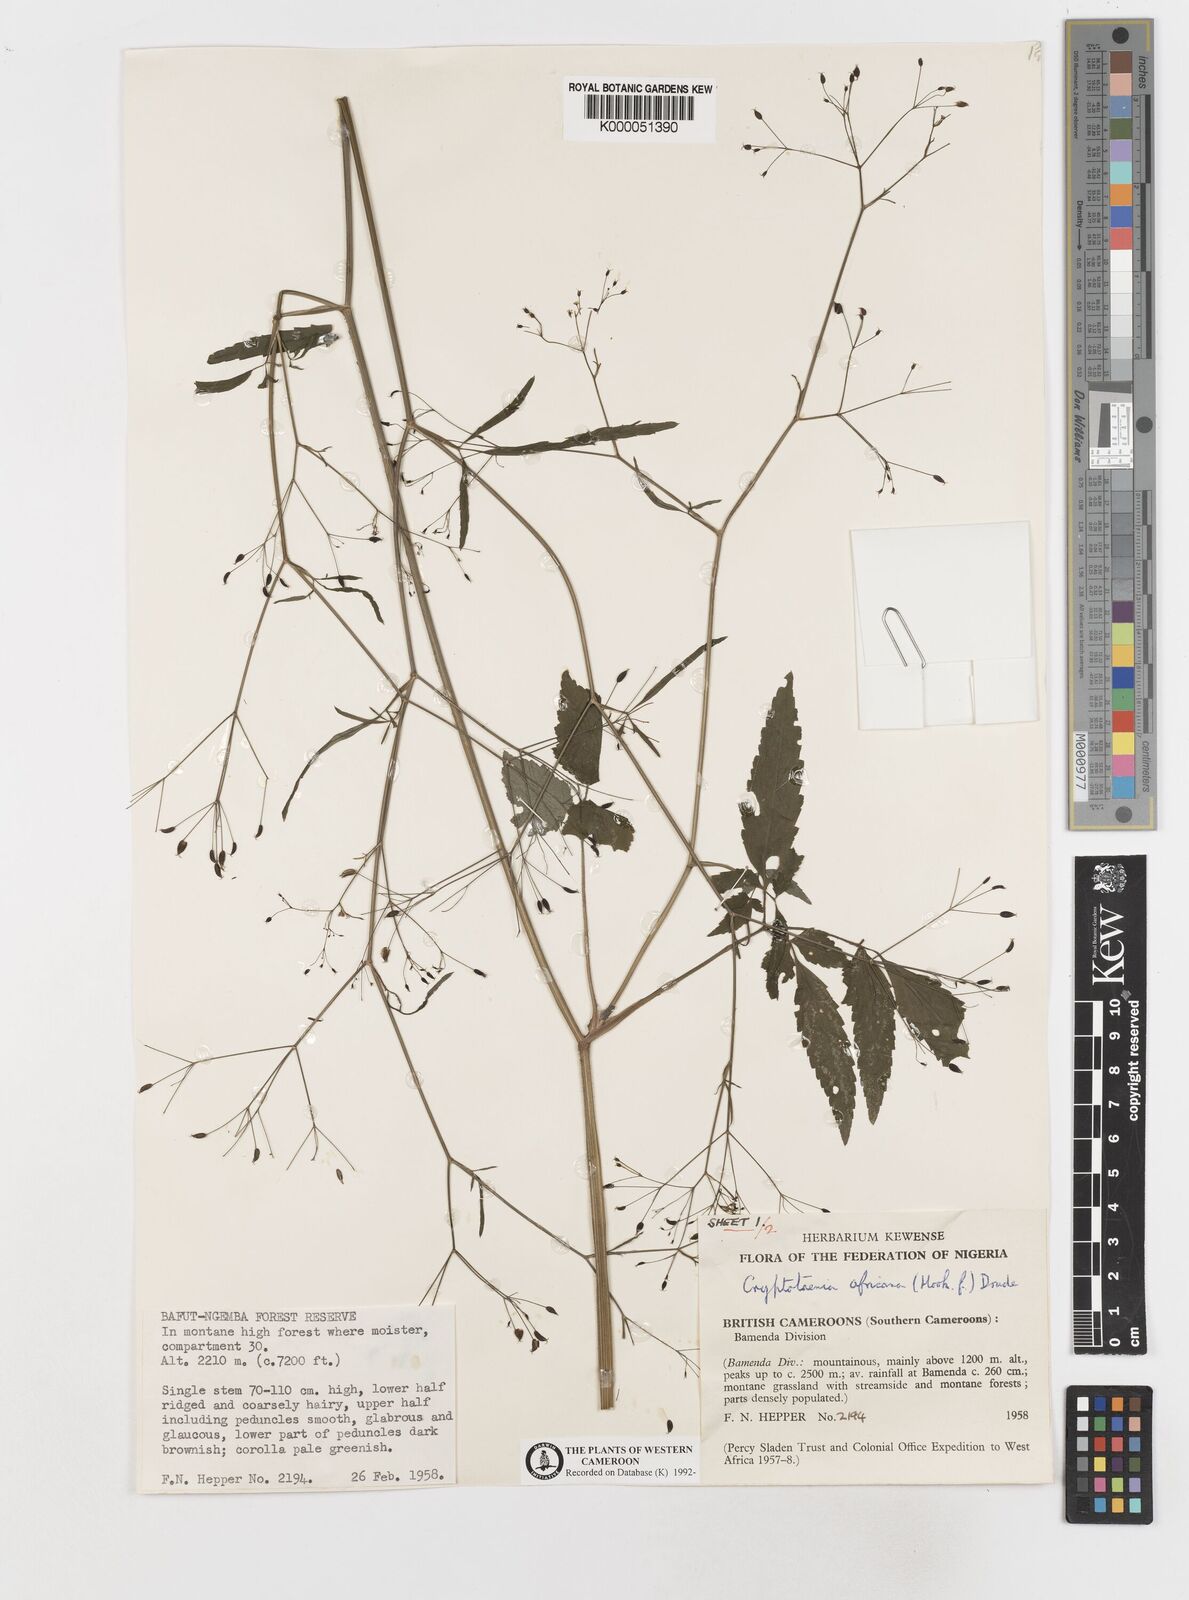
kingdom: Plantae
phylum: Tracheophyta
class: Magnoliopsida
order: Apiales
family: Apiaceae
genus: Cryptotaenia
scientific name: Cryptotaenia africana
